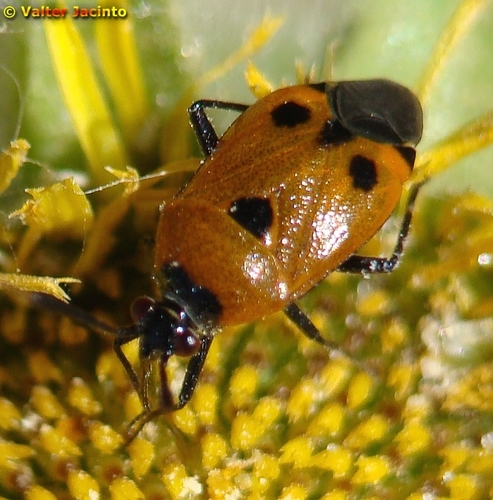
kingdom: Animalia
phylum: Arthropoda
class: Insecta
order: Hemiptera
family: Miridae
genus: Deraeocoris
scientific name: Deraeocoris punctum
